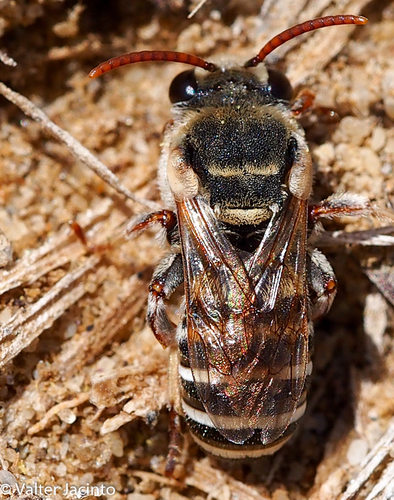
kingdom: Animalia
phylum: Arthropoda
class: Insecta
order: Hymenoptera
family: Halictidae
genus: Pseudapis
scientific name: Pseudapis unidentata
